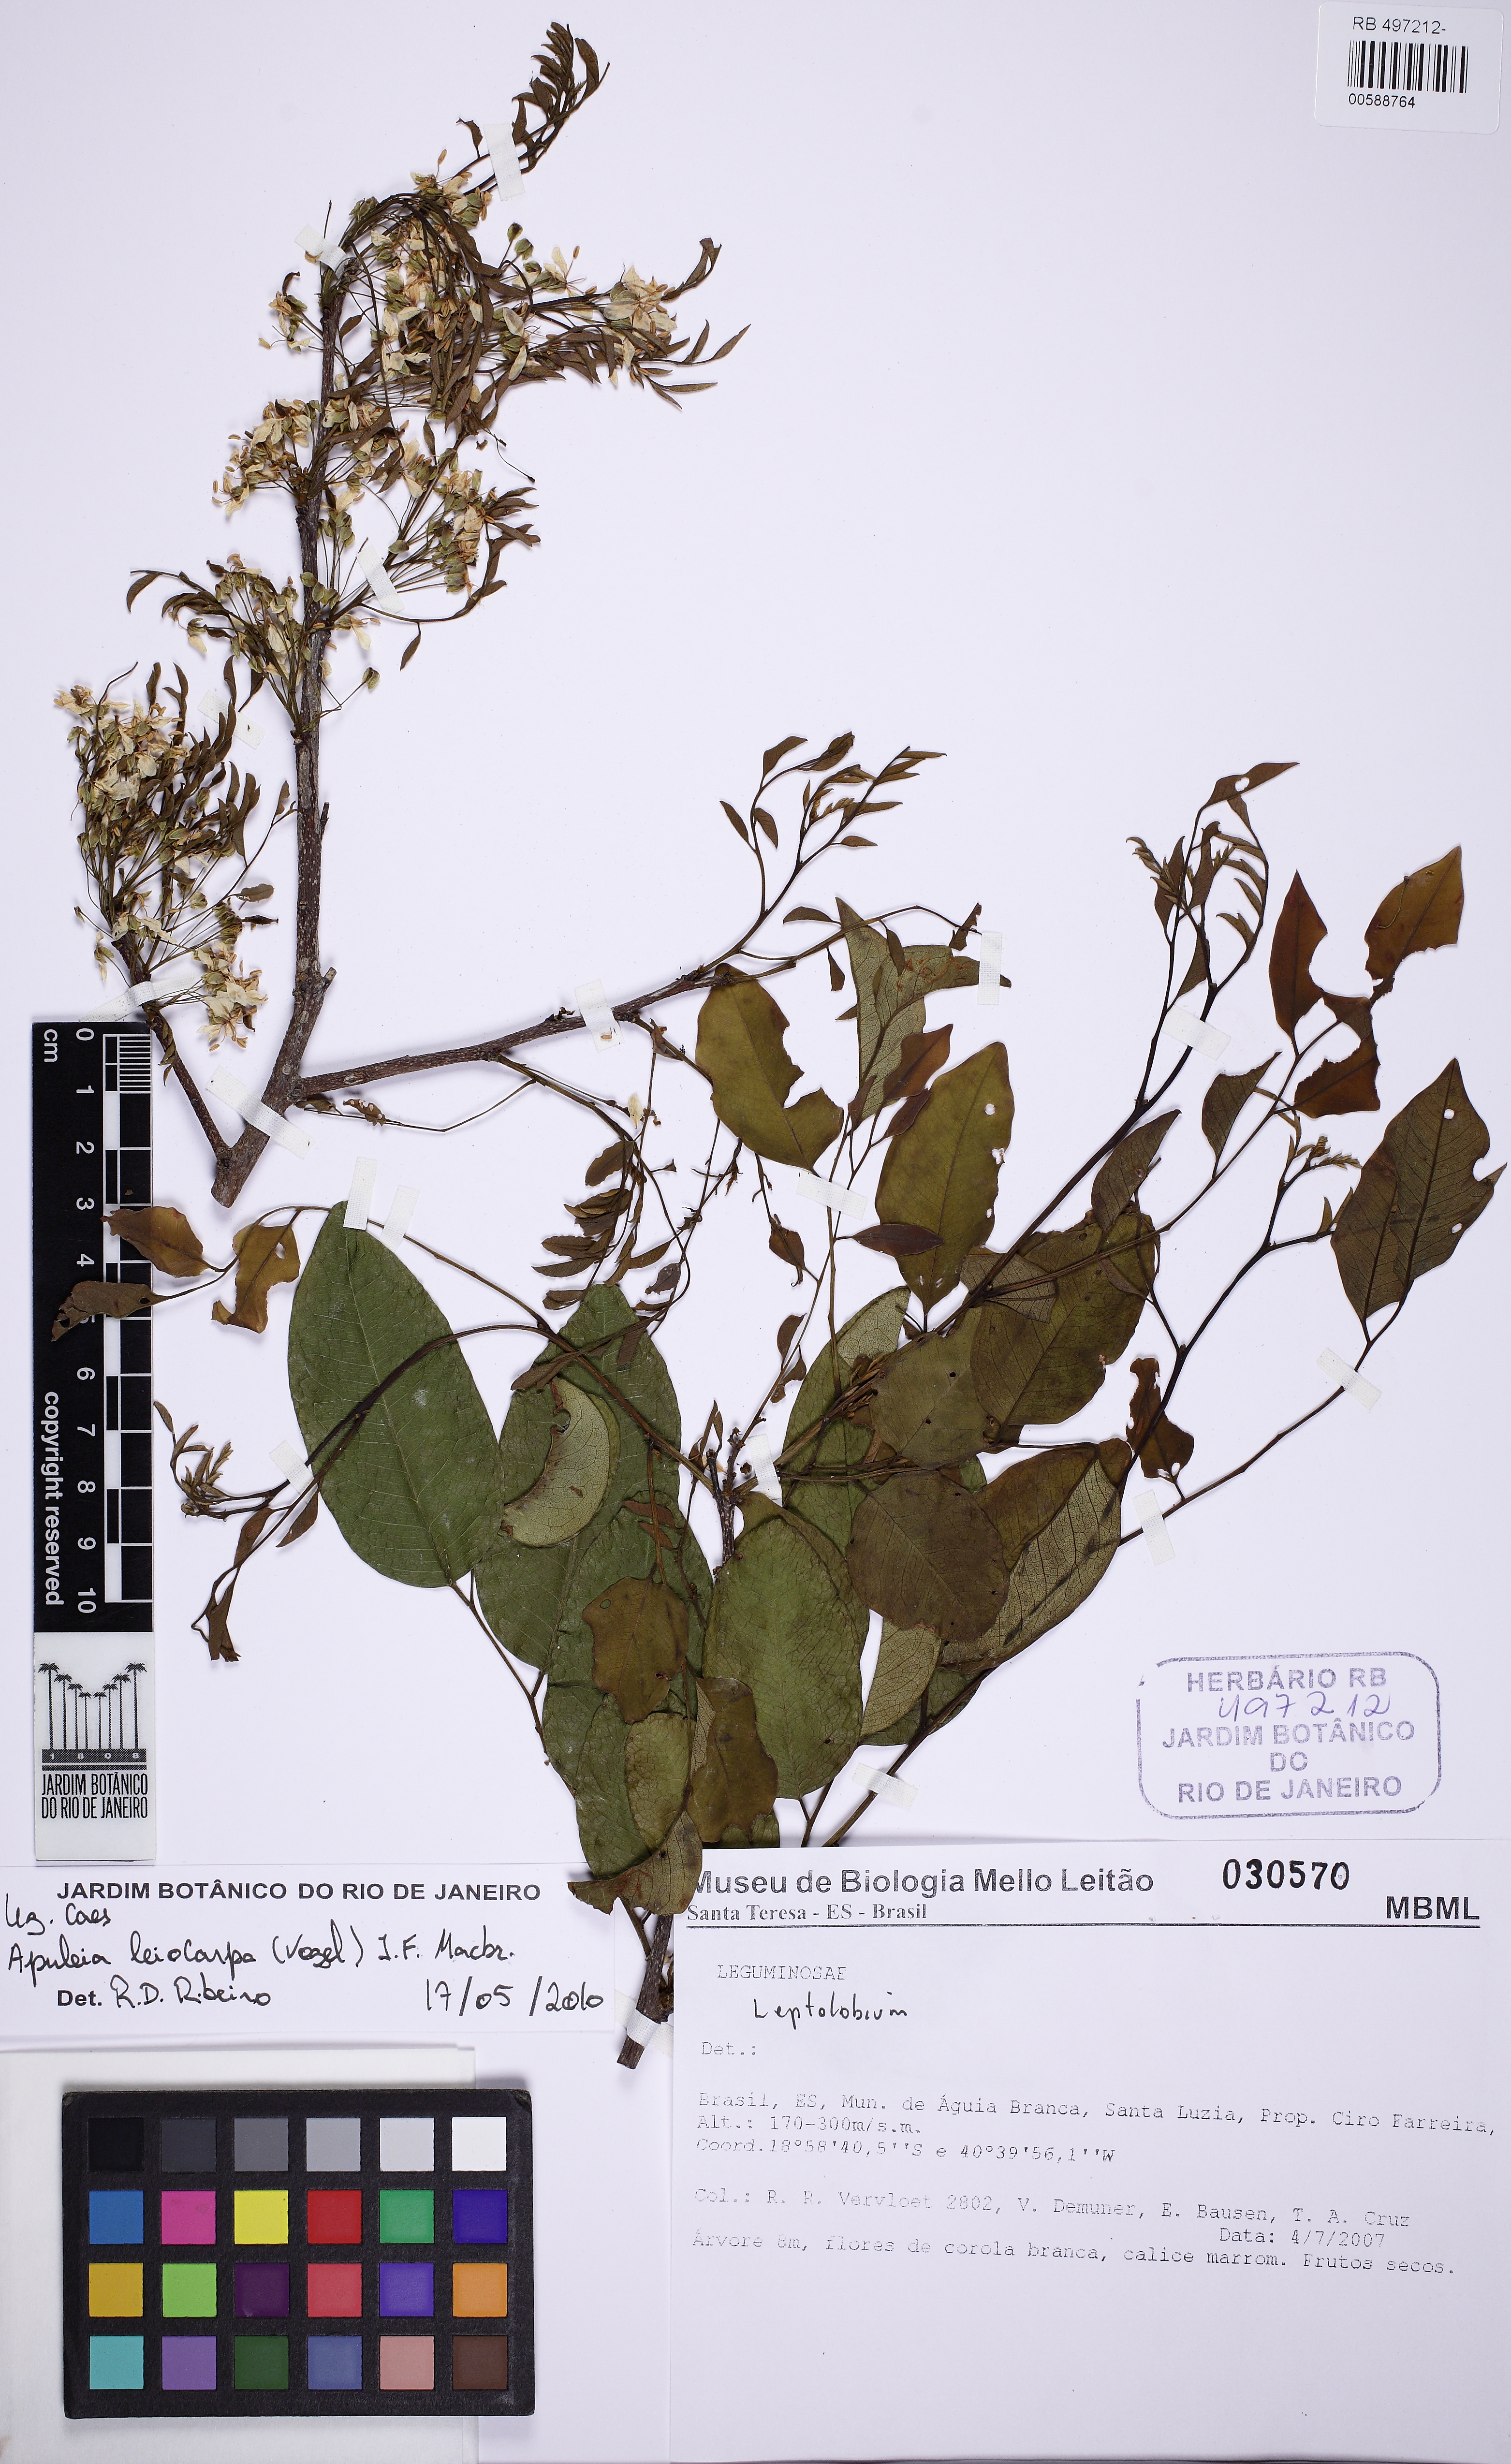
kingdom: Plantae
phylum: Tracheophyta
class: Magnoliopsida
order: Fabales
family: Fabaceae
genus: Leptolobium
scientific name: Leptolobium
